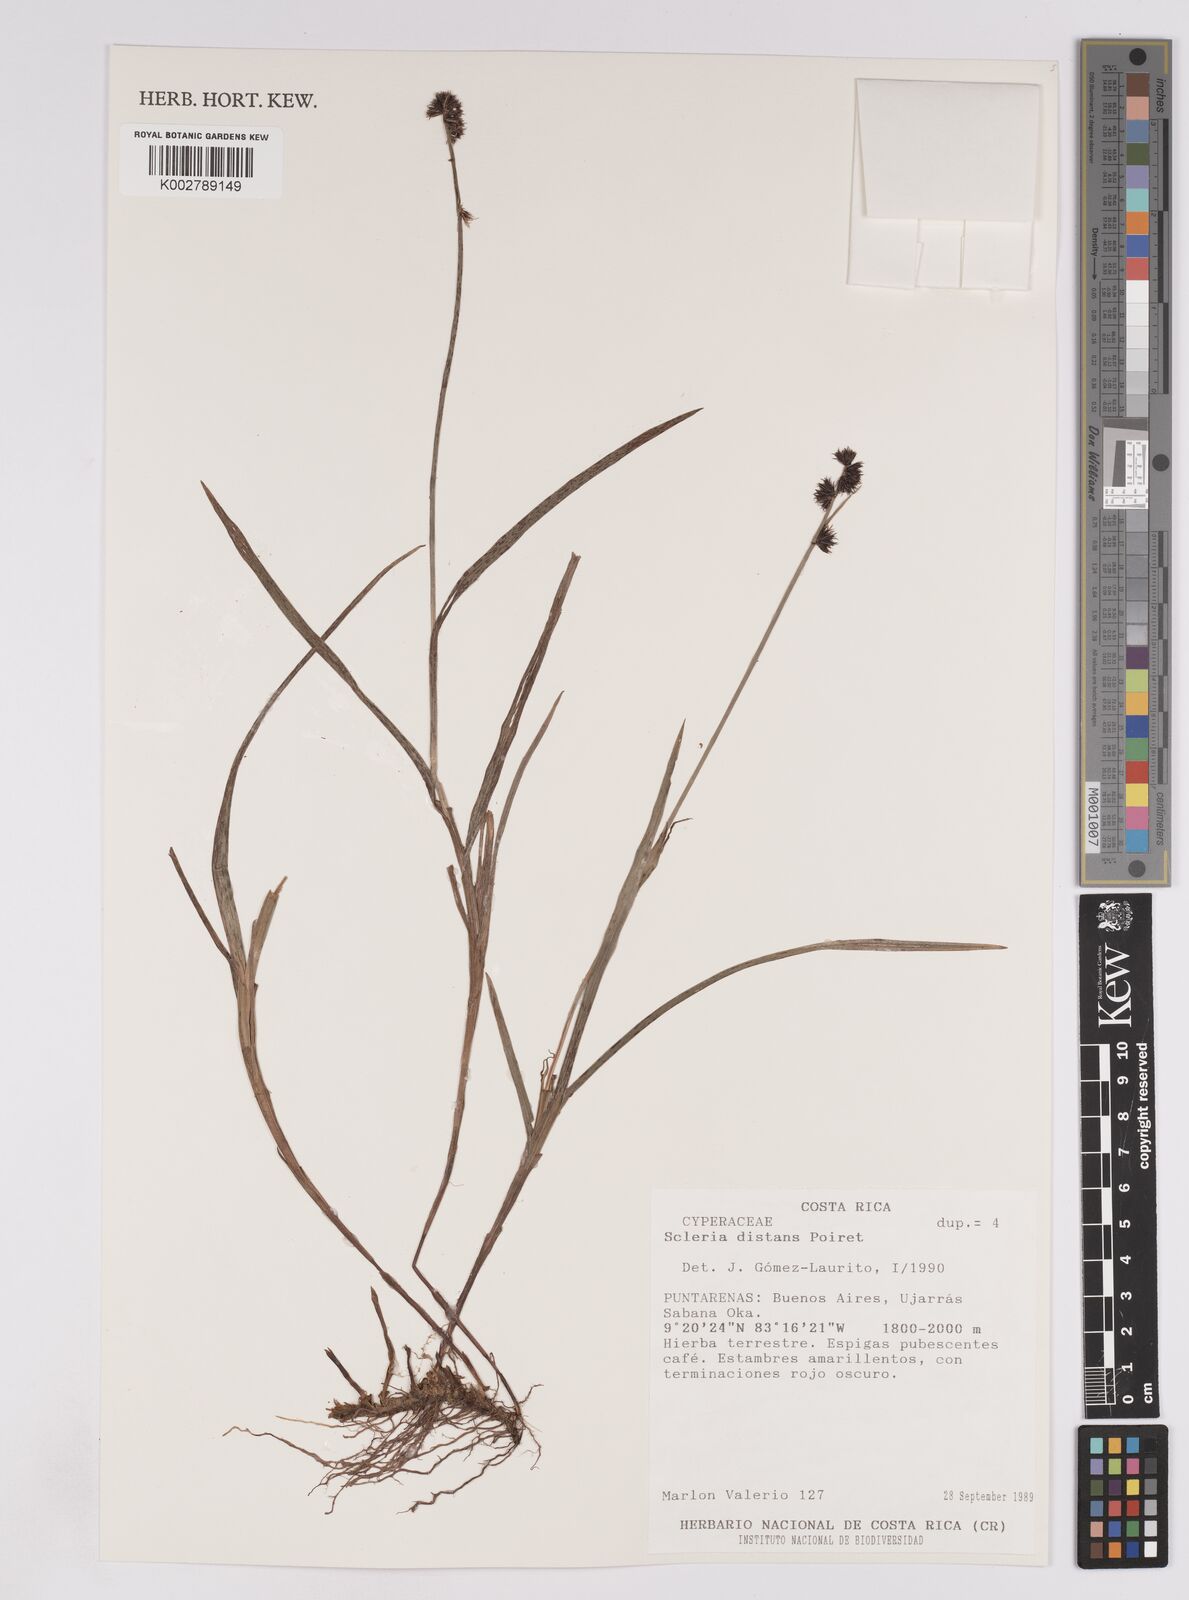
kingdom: Plantae
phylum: Tracheophyta
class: Liliopsida
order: Poales
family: Cyperaceae
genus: Scleria
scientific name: Scleria distans
